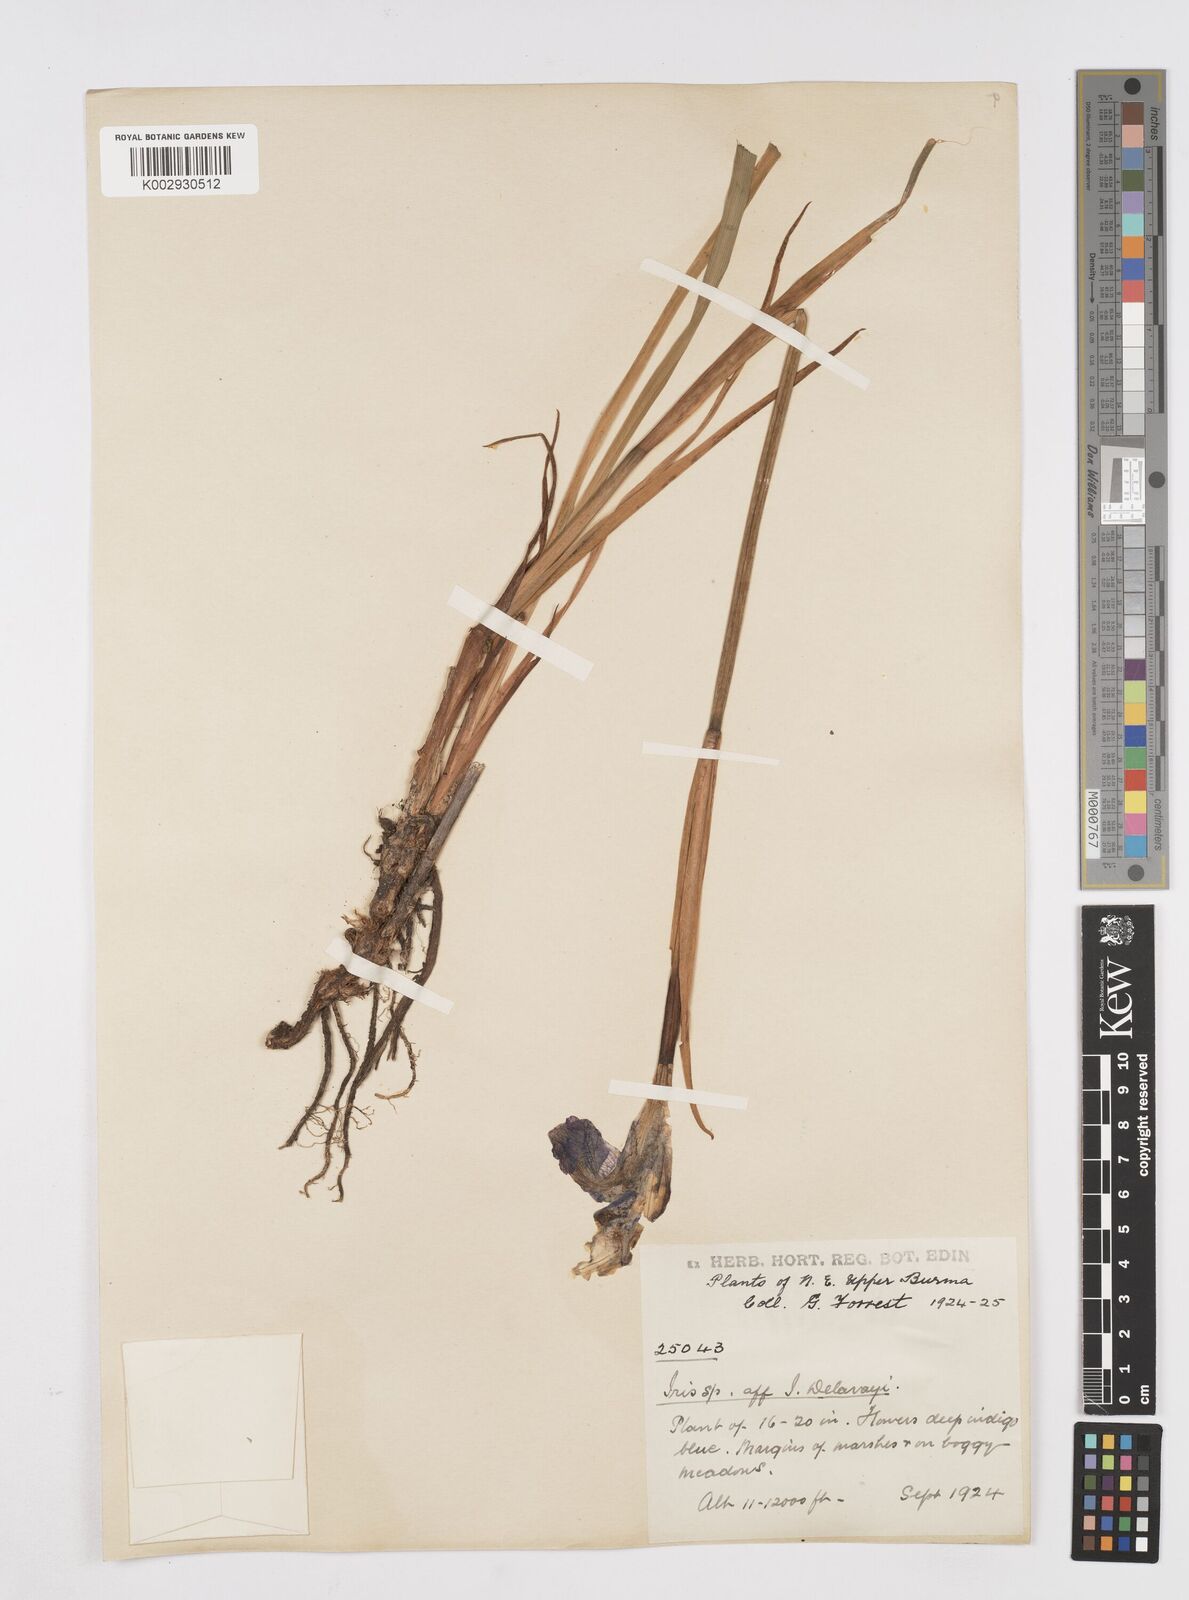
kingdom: Plantae
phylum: Tracheophyta
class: Liliopsida
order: Asparagales
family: Iridaceae
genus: Iris
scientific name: Iris chrysographes
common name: Gold-vein iris
